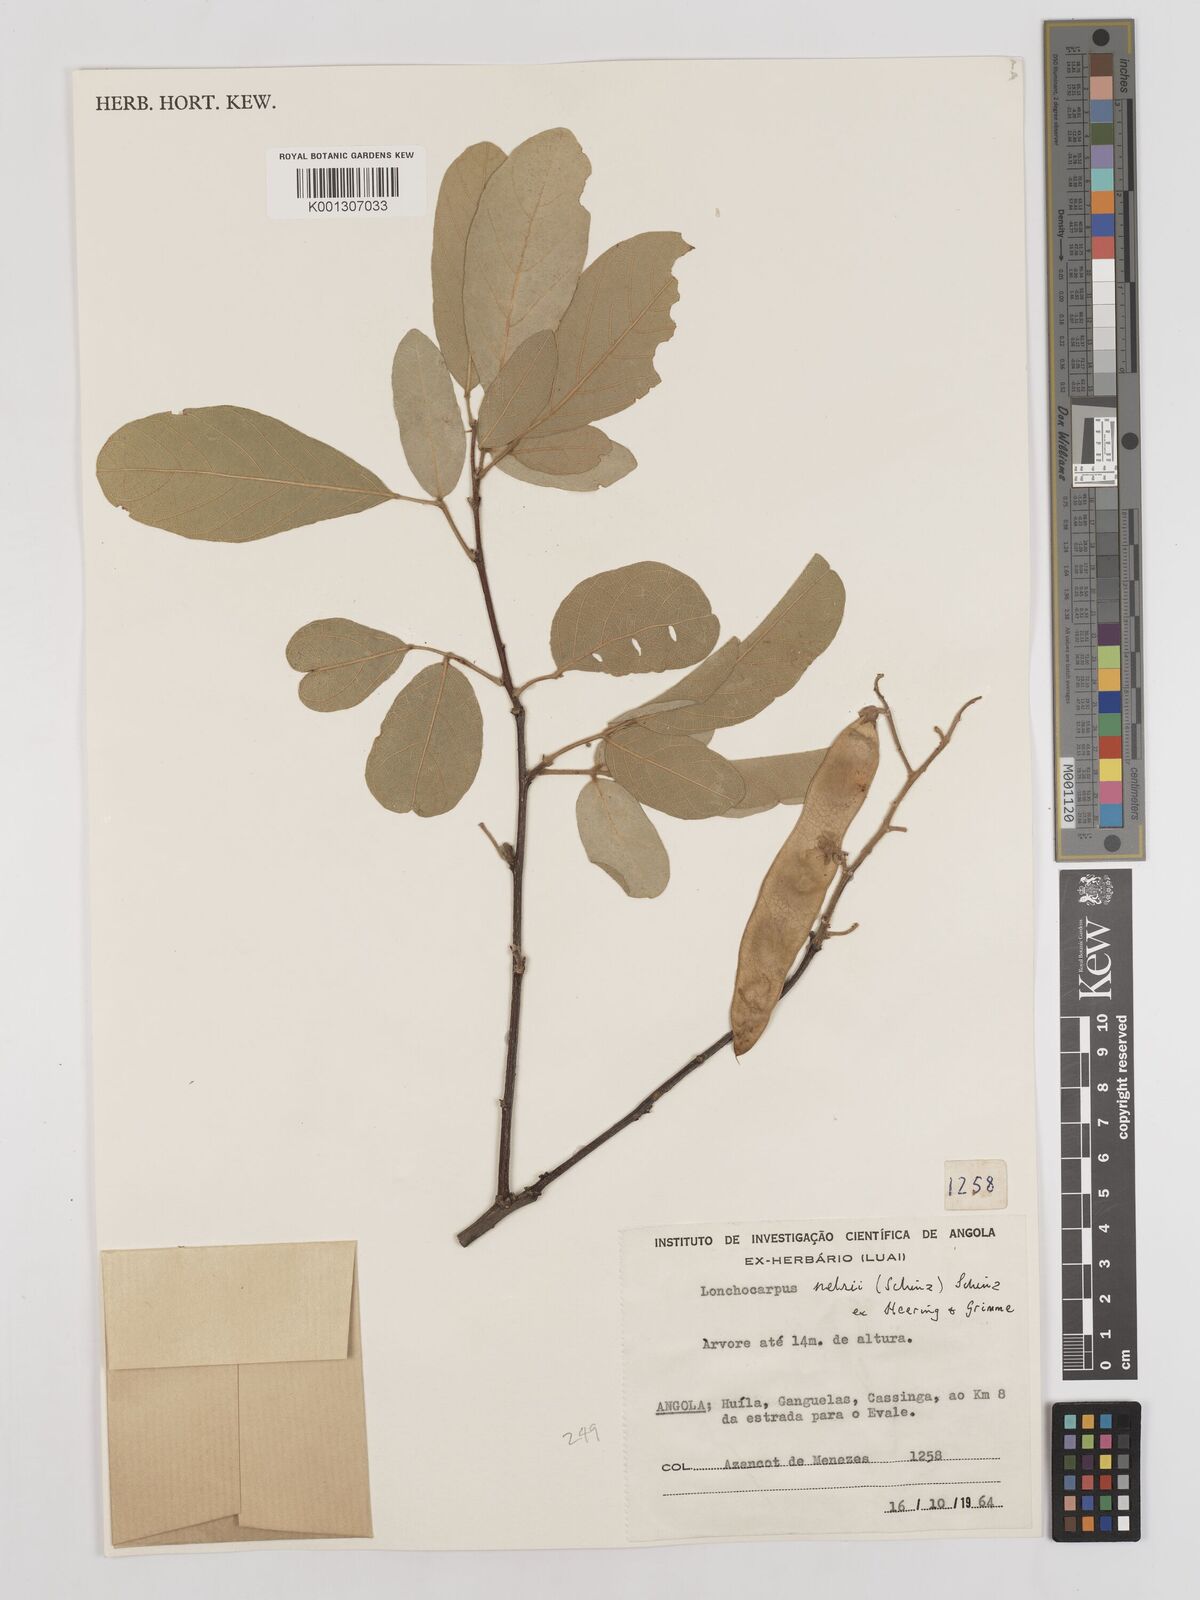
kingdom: Plantae
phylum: Tracheophyta
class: Magnoliopsida
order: Fabales
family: Fabaceae
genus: Philenoptera
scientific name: Philenoptera nelsii
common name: Kalahari apple-leaf
